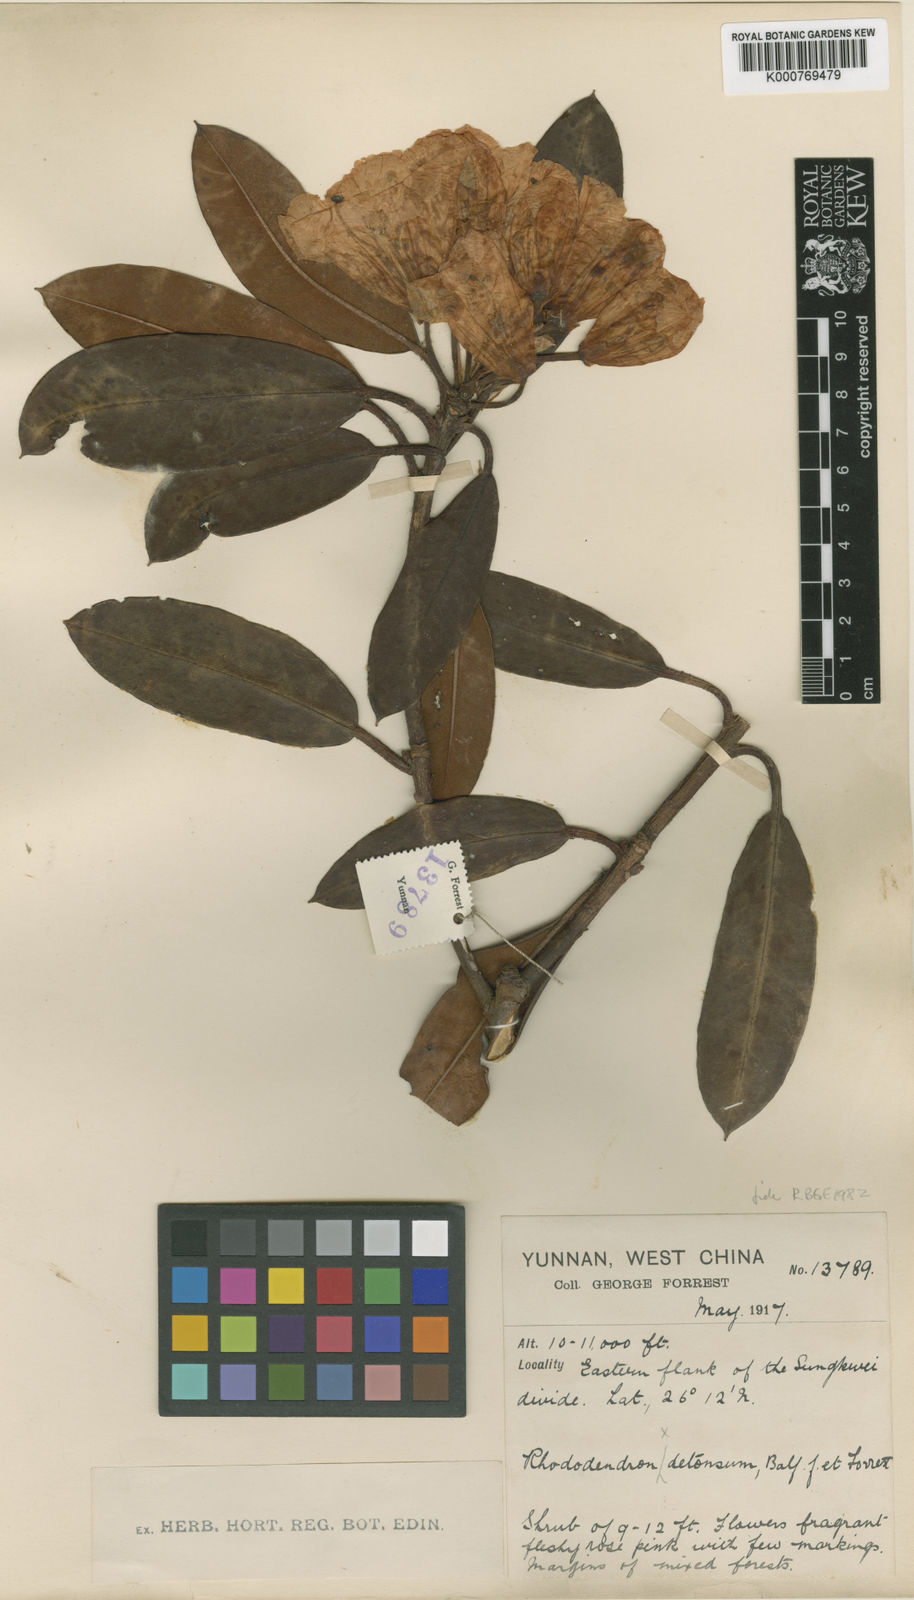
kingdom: Plantae
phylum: Tracheophyta
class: Magnoliopsida
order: Ericales
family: Ericaceae
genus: Rhododendron
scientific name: Rhododendron detonsum
